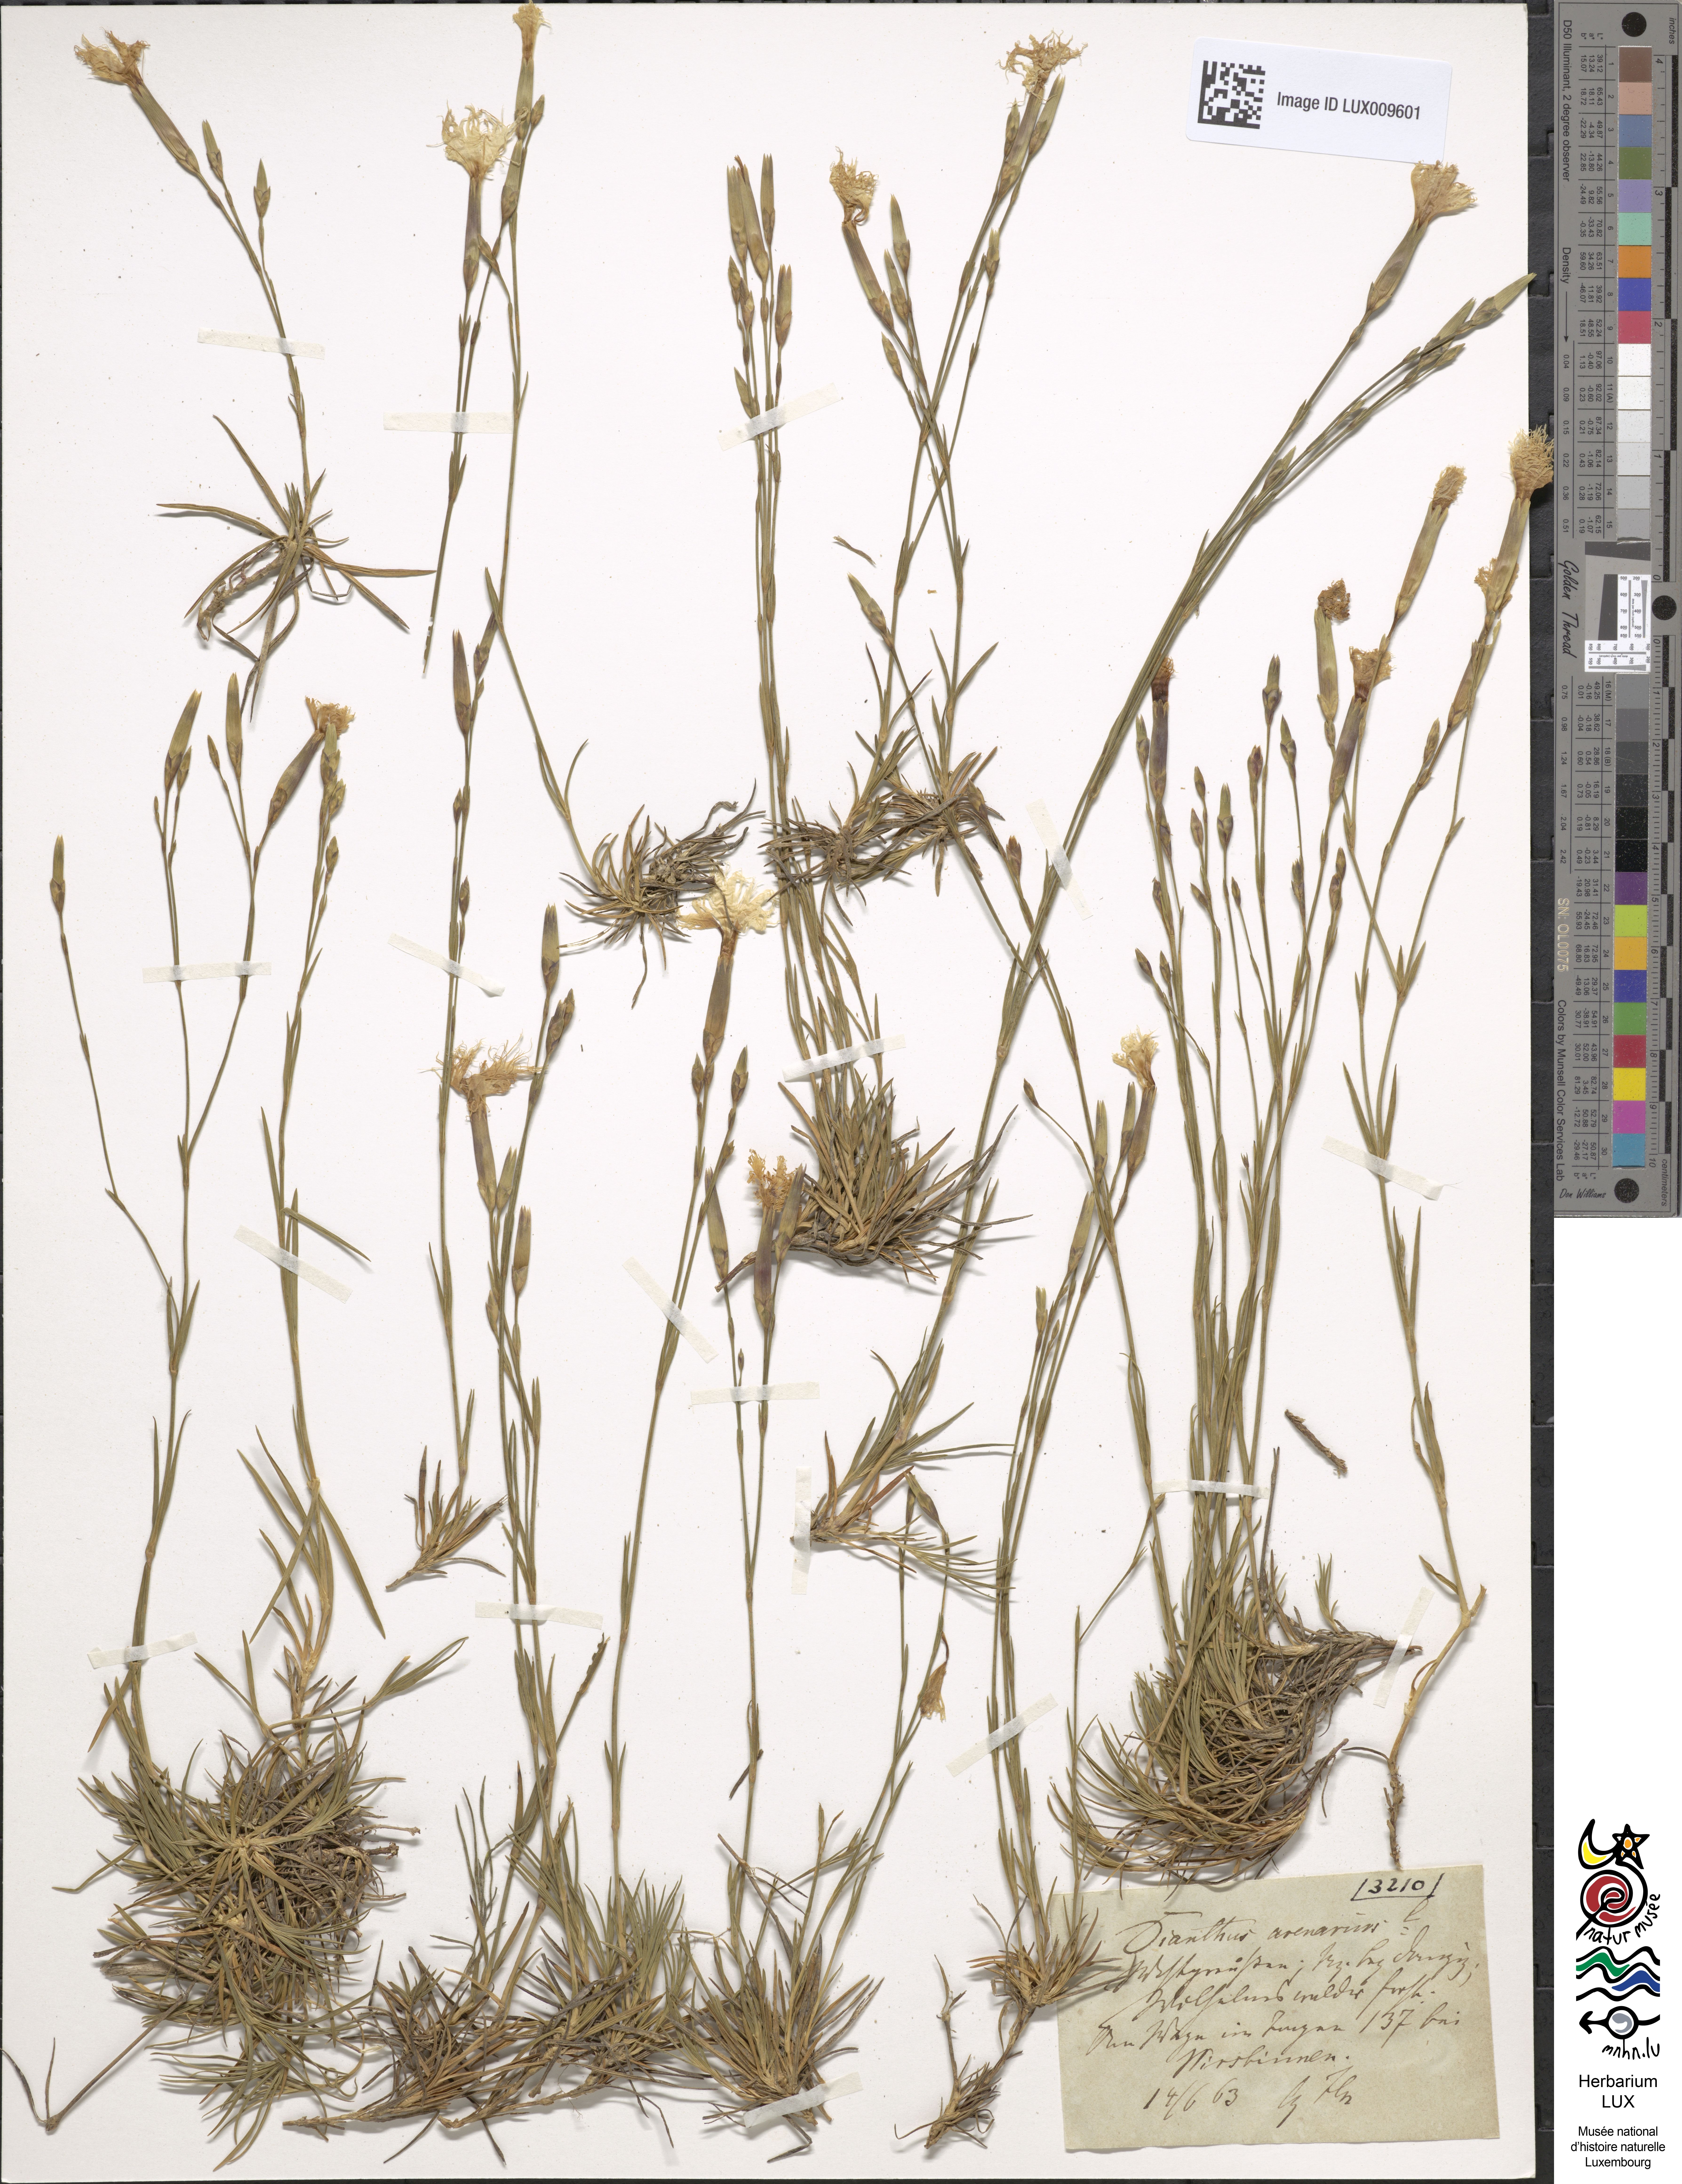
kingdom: Plantae
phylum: Tracheophyta
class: Magnoliopsida
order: Caryophyllales
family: Caryophyllaceae
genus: Dianthus
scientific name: Dianthus arenarius
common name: Stone pink
